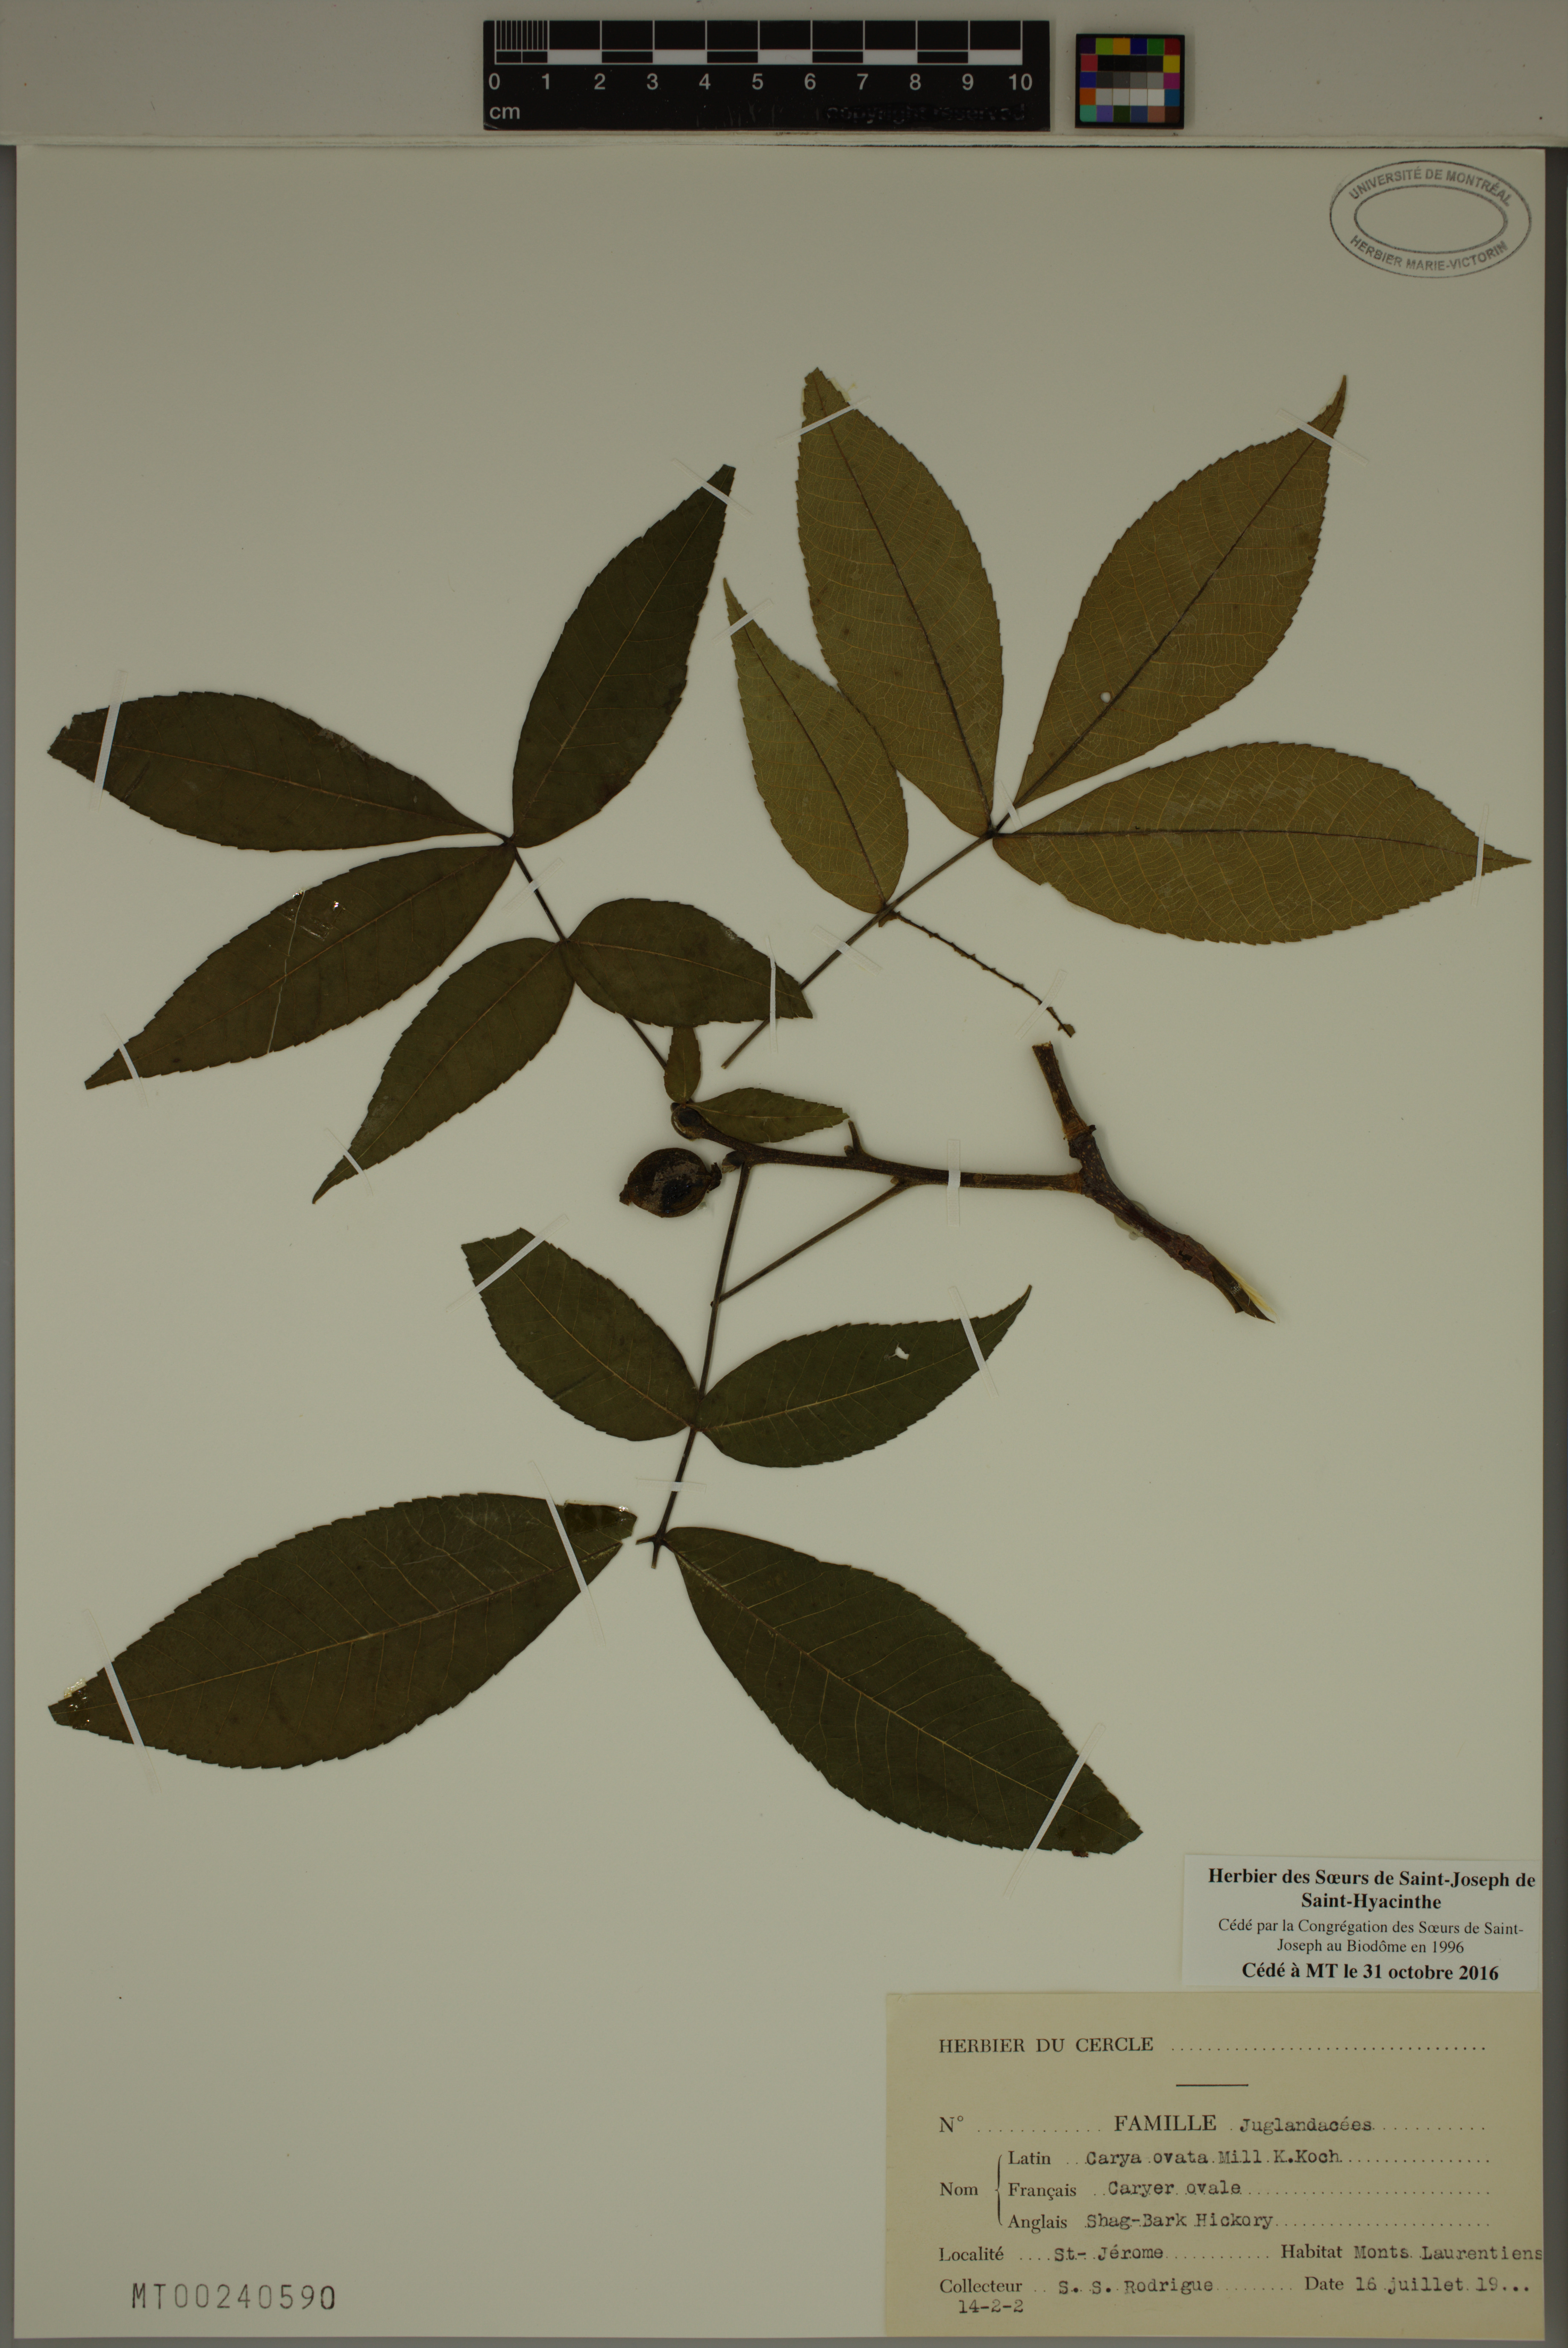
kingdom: Plantae
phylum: Tracheophyta
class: Magnoliopsida
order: Fagales
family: Juglandaceae
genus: Carya
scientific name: Carya ovata
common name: Shagbark hickory
